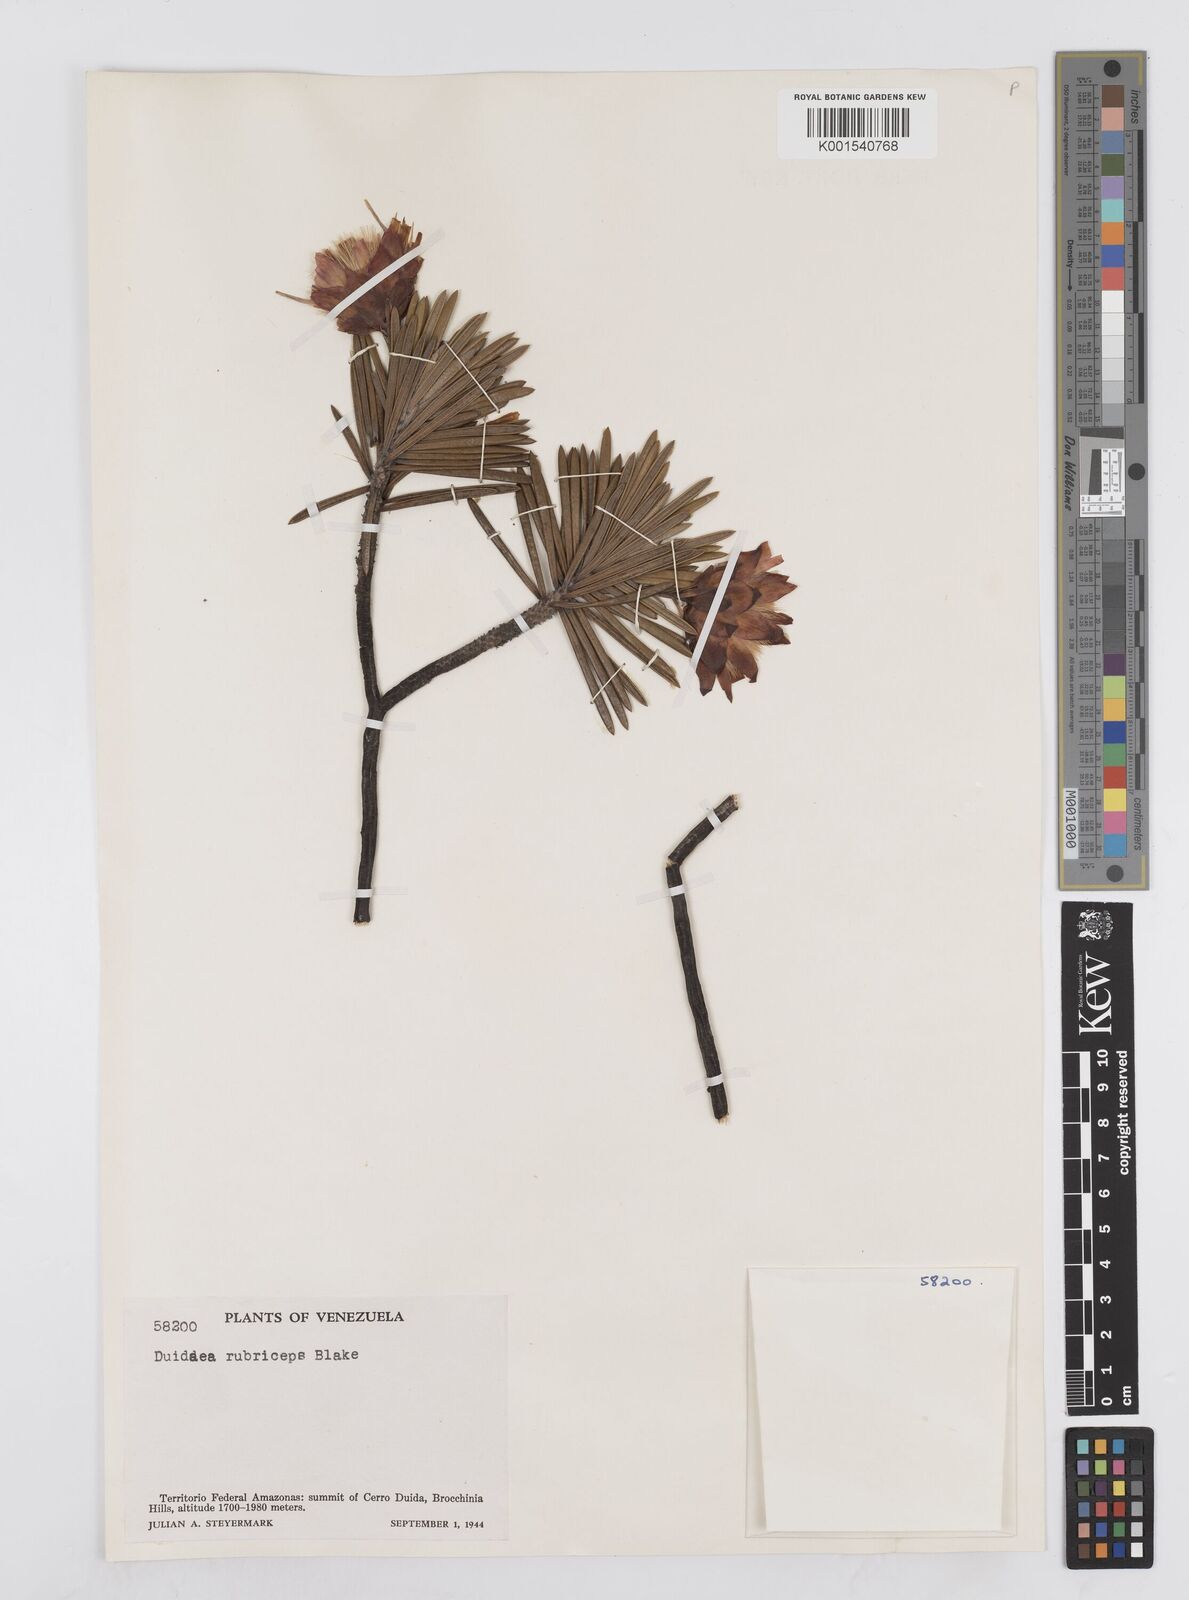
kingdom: Plantae
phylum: Tracheophyta
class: Magnoliopsida
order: Asterales
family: Asteraceae
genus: Duidaea
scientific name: Duidaea tatei
